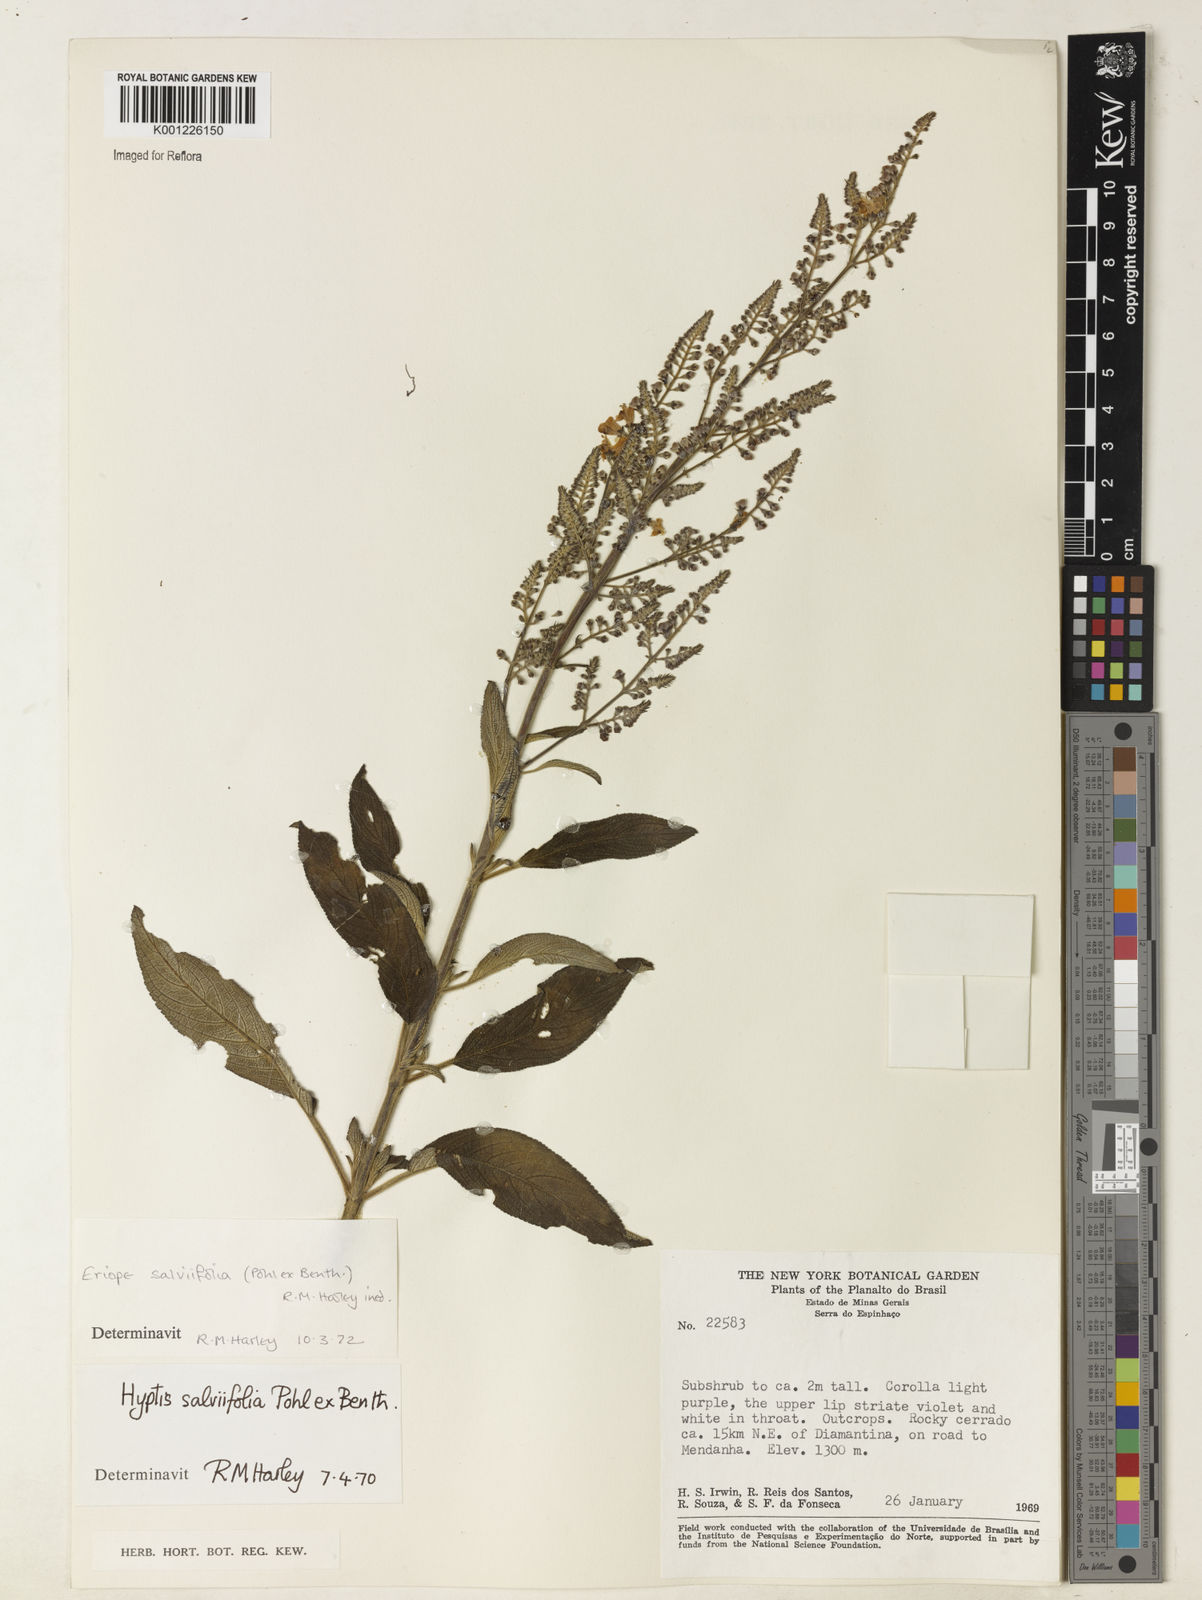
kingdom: Plantae
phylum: Tracheophyta
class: Magnoliopsida
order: Lamiales
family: Lamiaceae
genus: Eriope
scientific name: Eriope salviifolia
